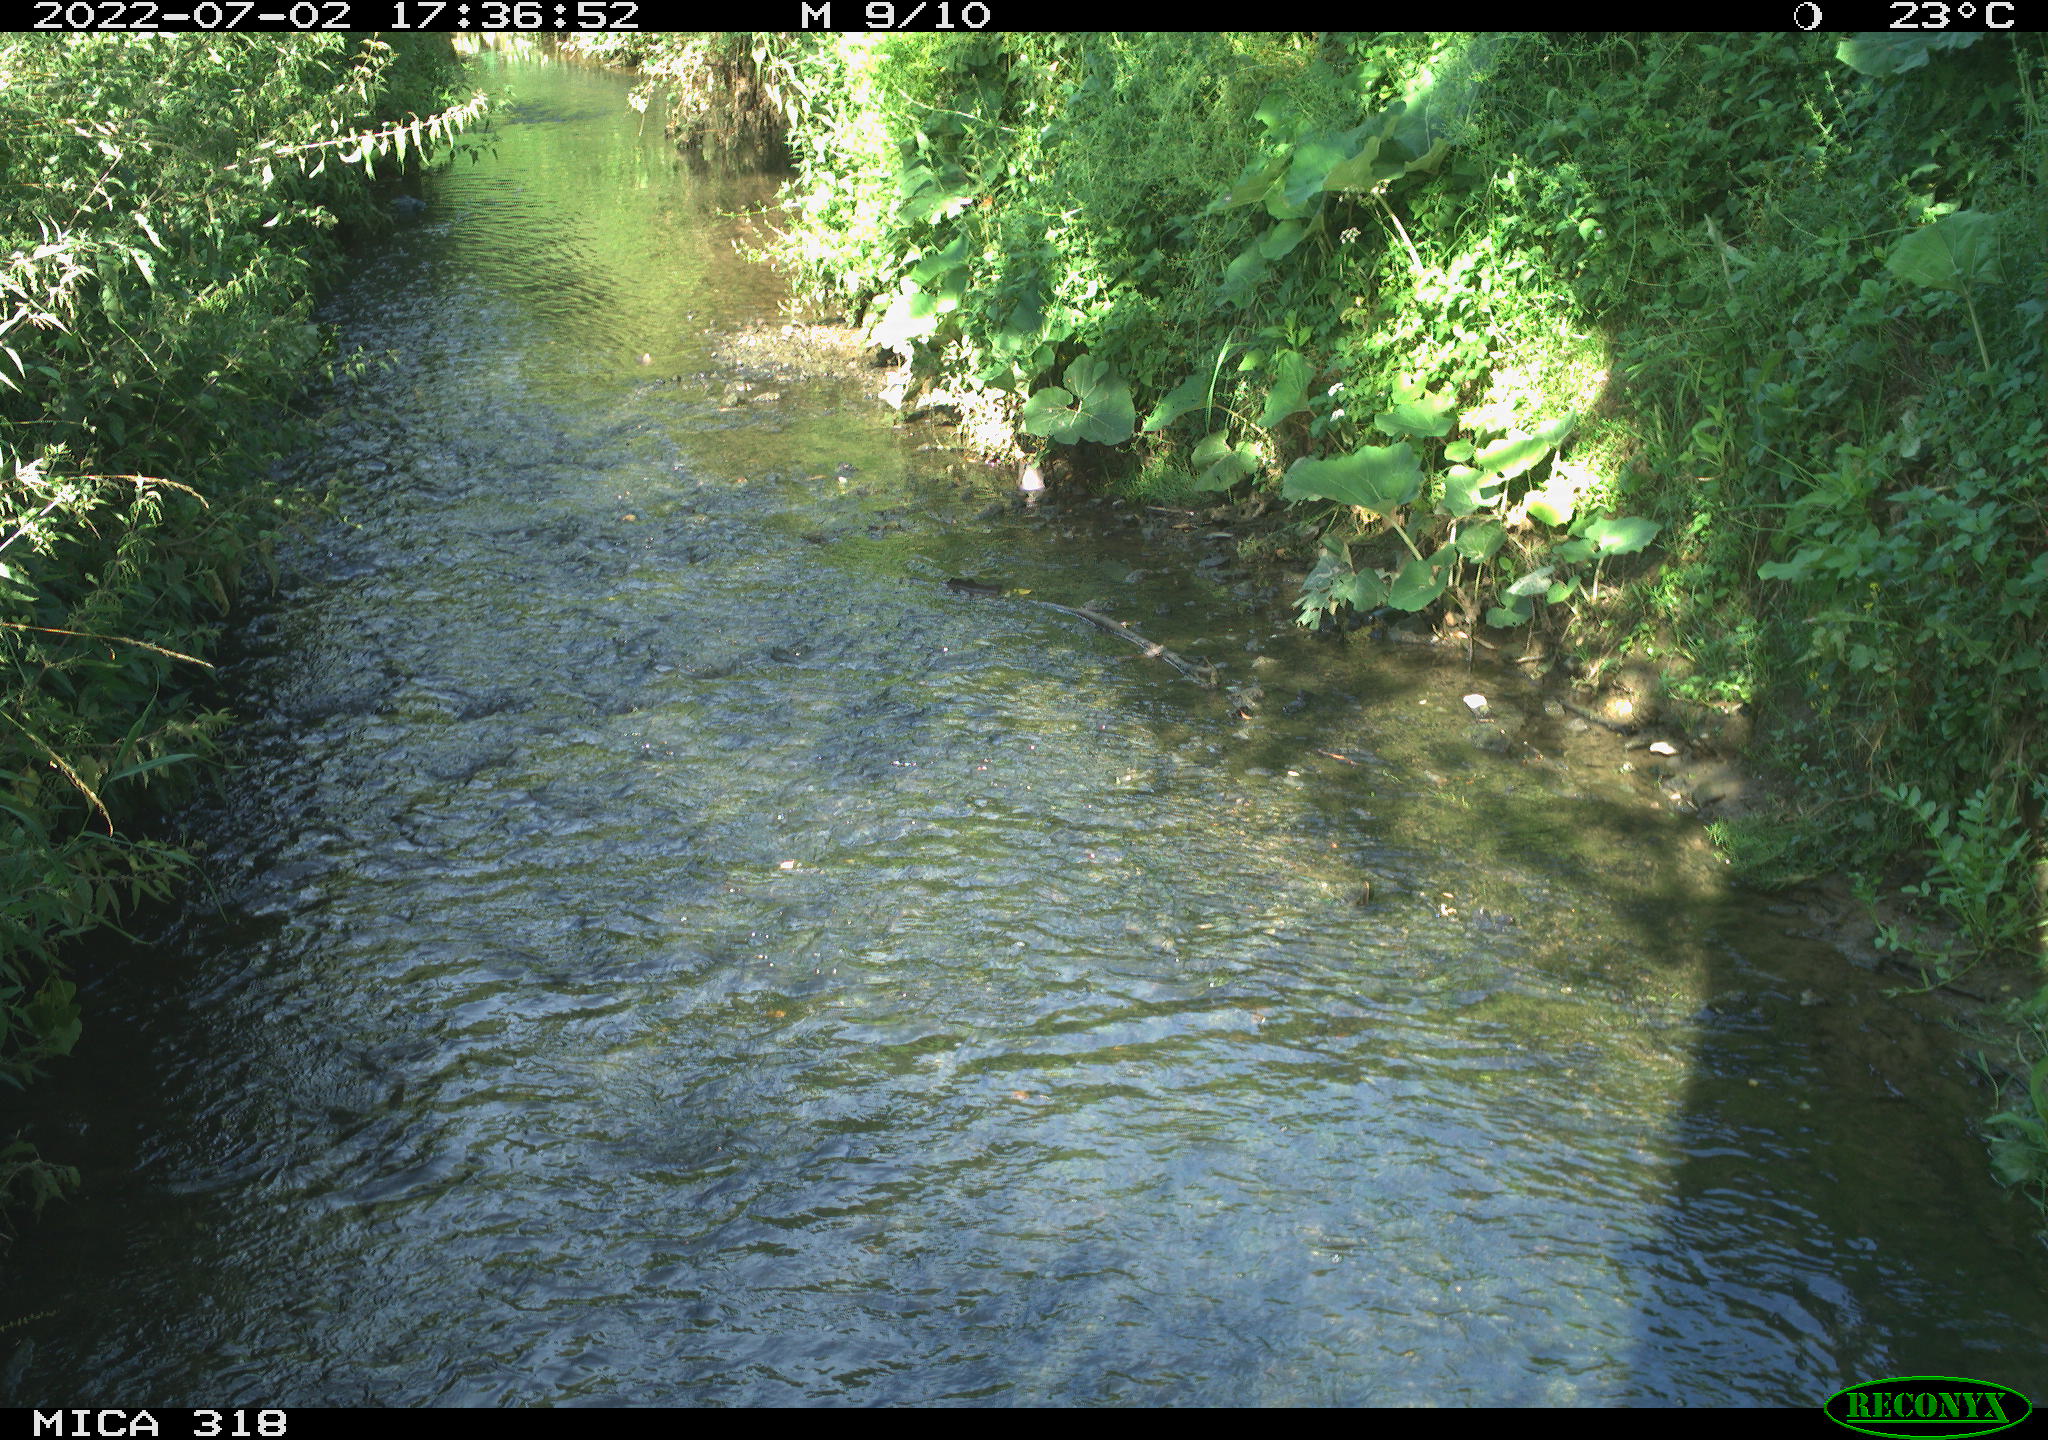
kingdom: Animalia
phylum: Chordata
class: Aves
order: Passeriformes
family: Corvidae
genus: Corvus
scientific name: Corvus corone
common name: Carrion crow
